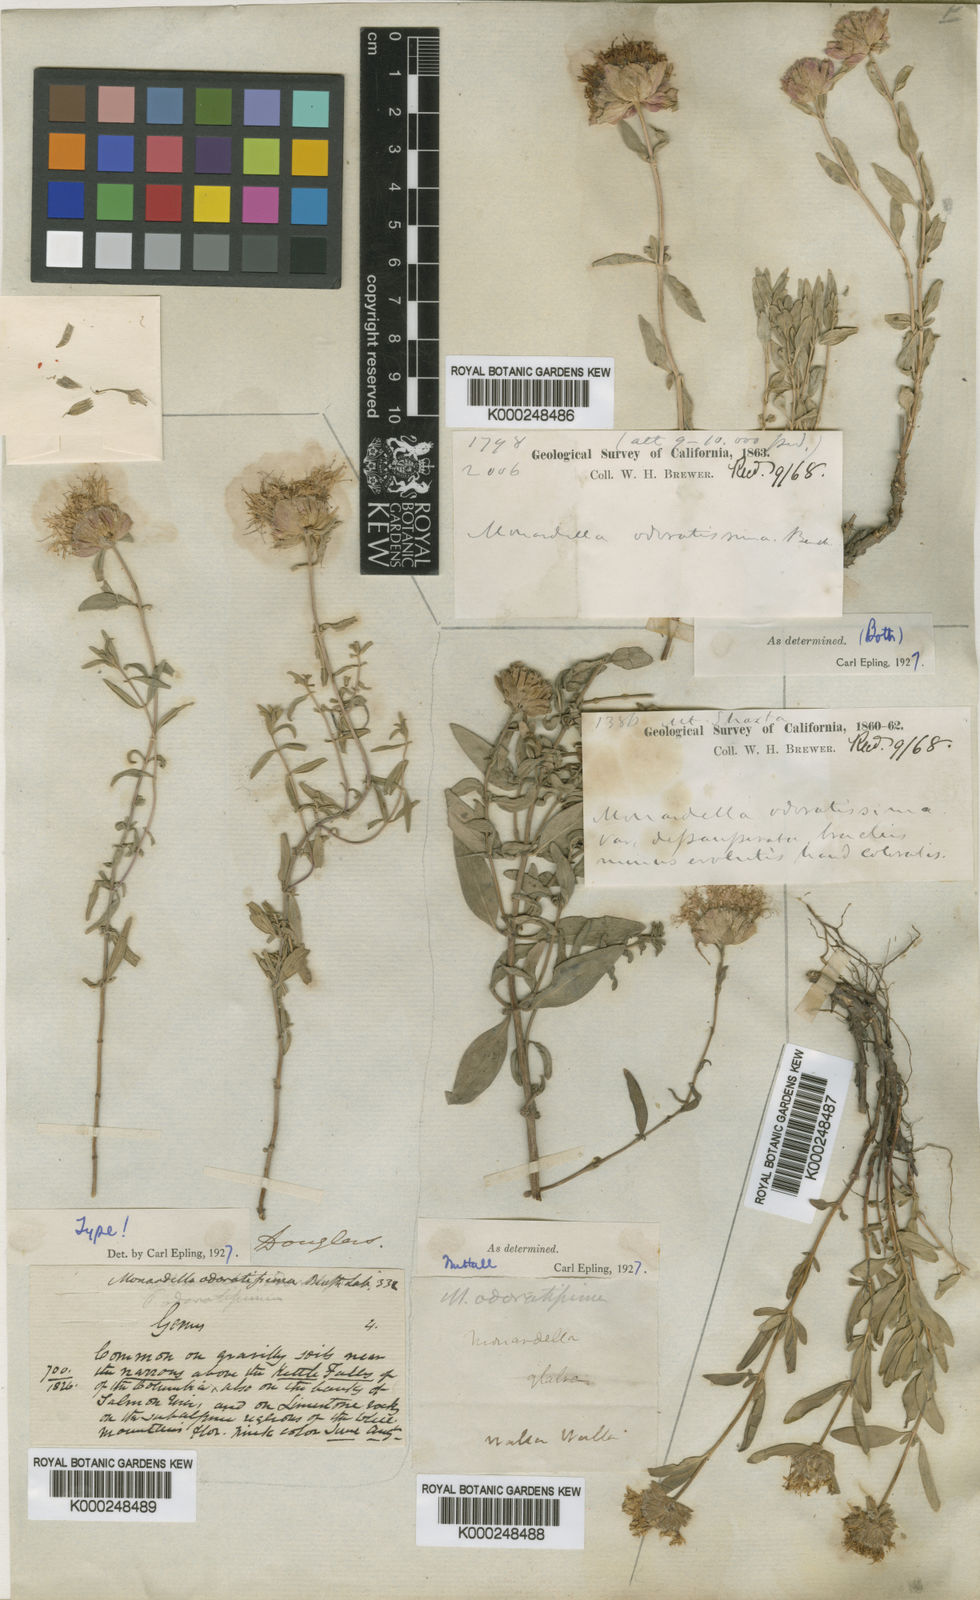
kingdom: Plantae
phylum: Tracheophyta
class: Magnoliopsida
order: Lamiales
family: Lamiaceae
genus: Monardella
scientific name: Monardella odoratissima
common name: Pacific monardella
